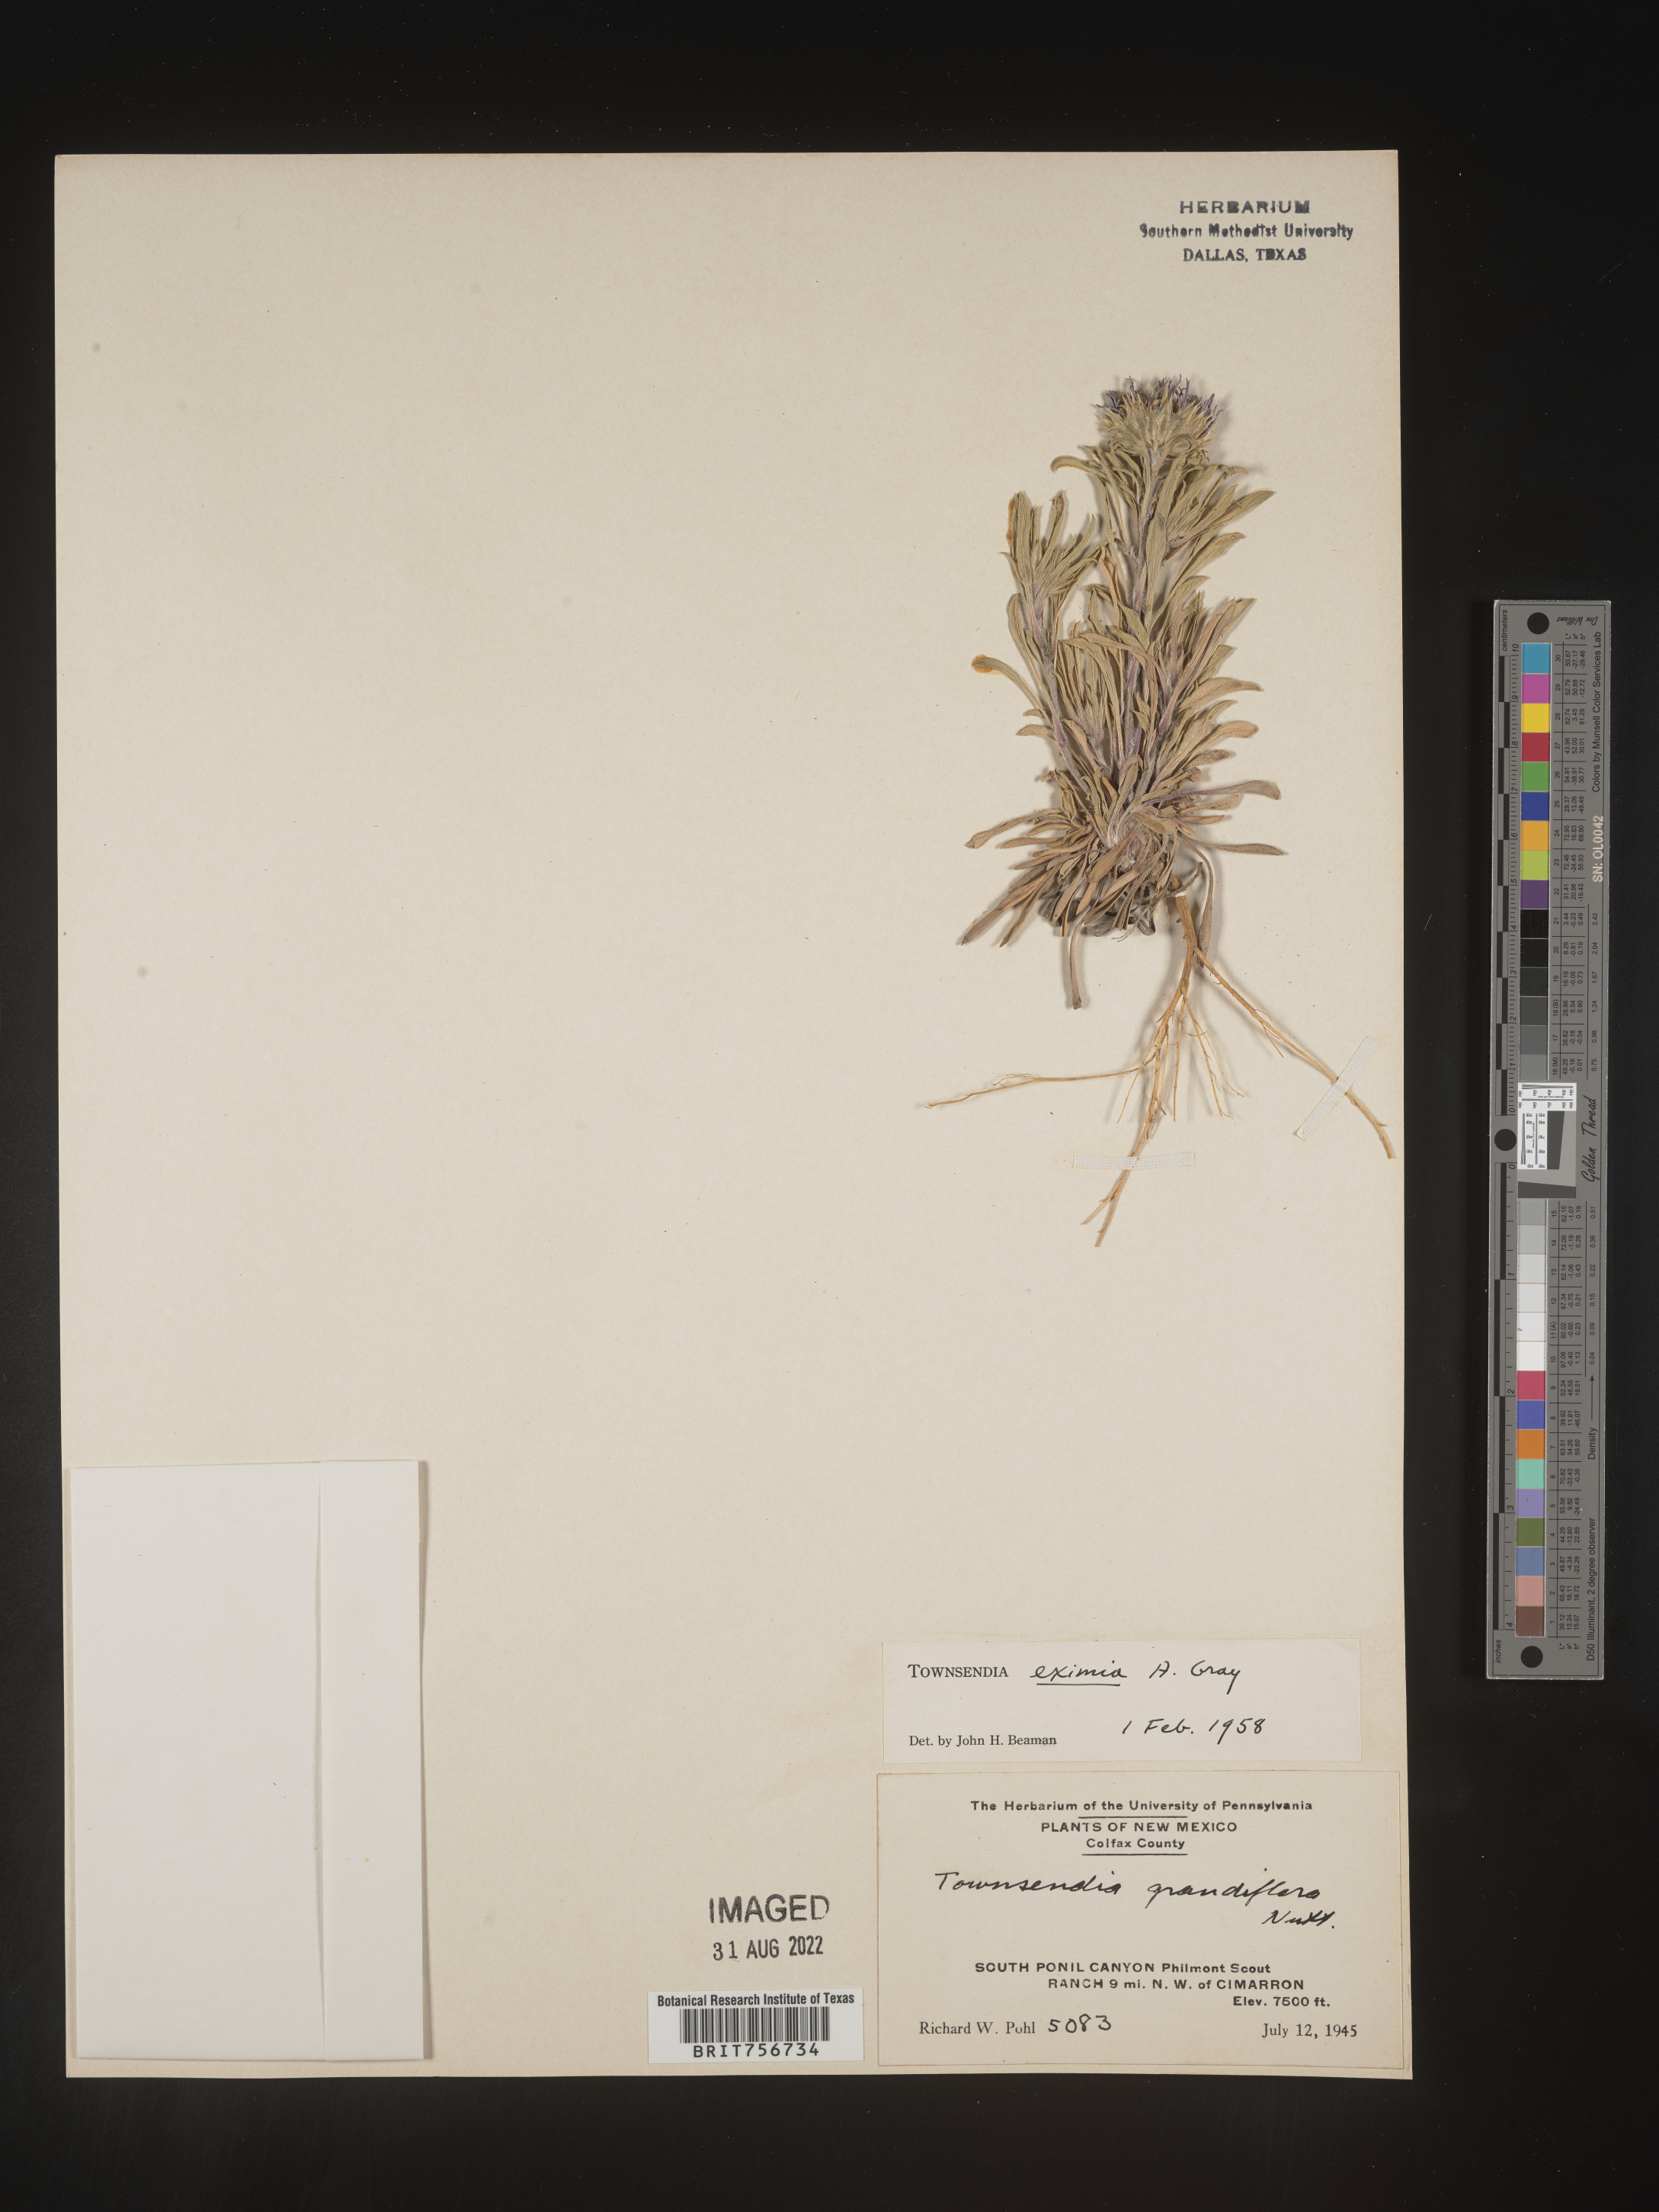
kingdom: Plantae
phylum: Tracheophyta
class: Magnoliopsida
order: Asterales
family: Asteraceae
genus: Townsendia
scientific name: Townsendia eximia
